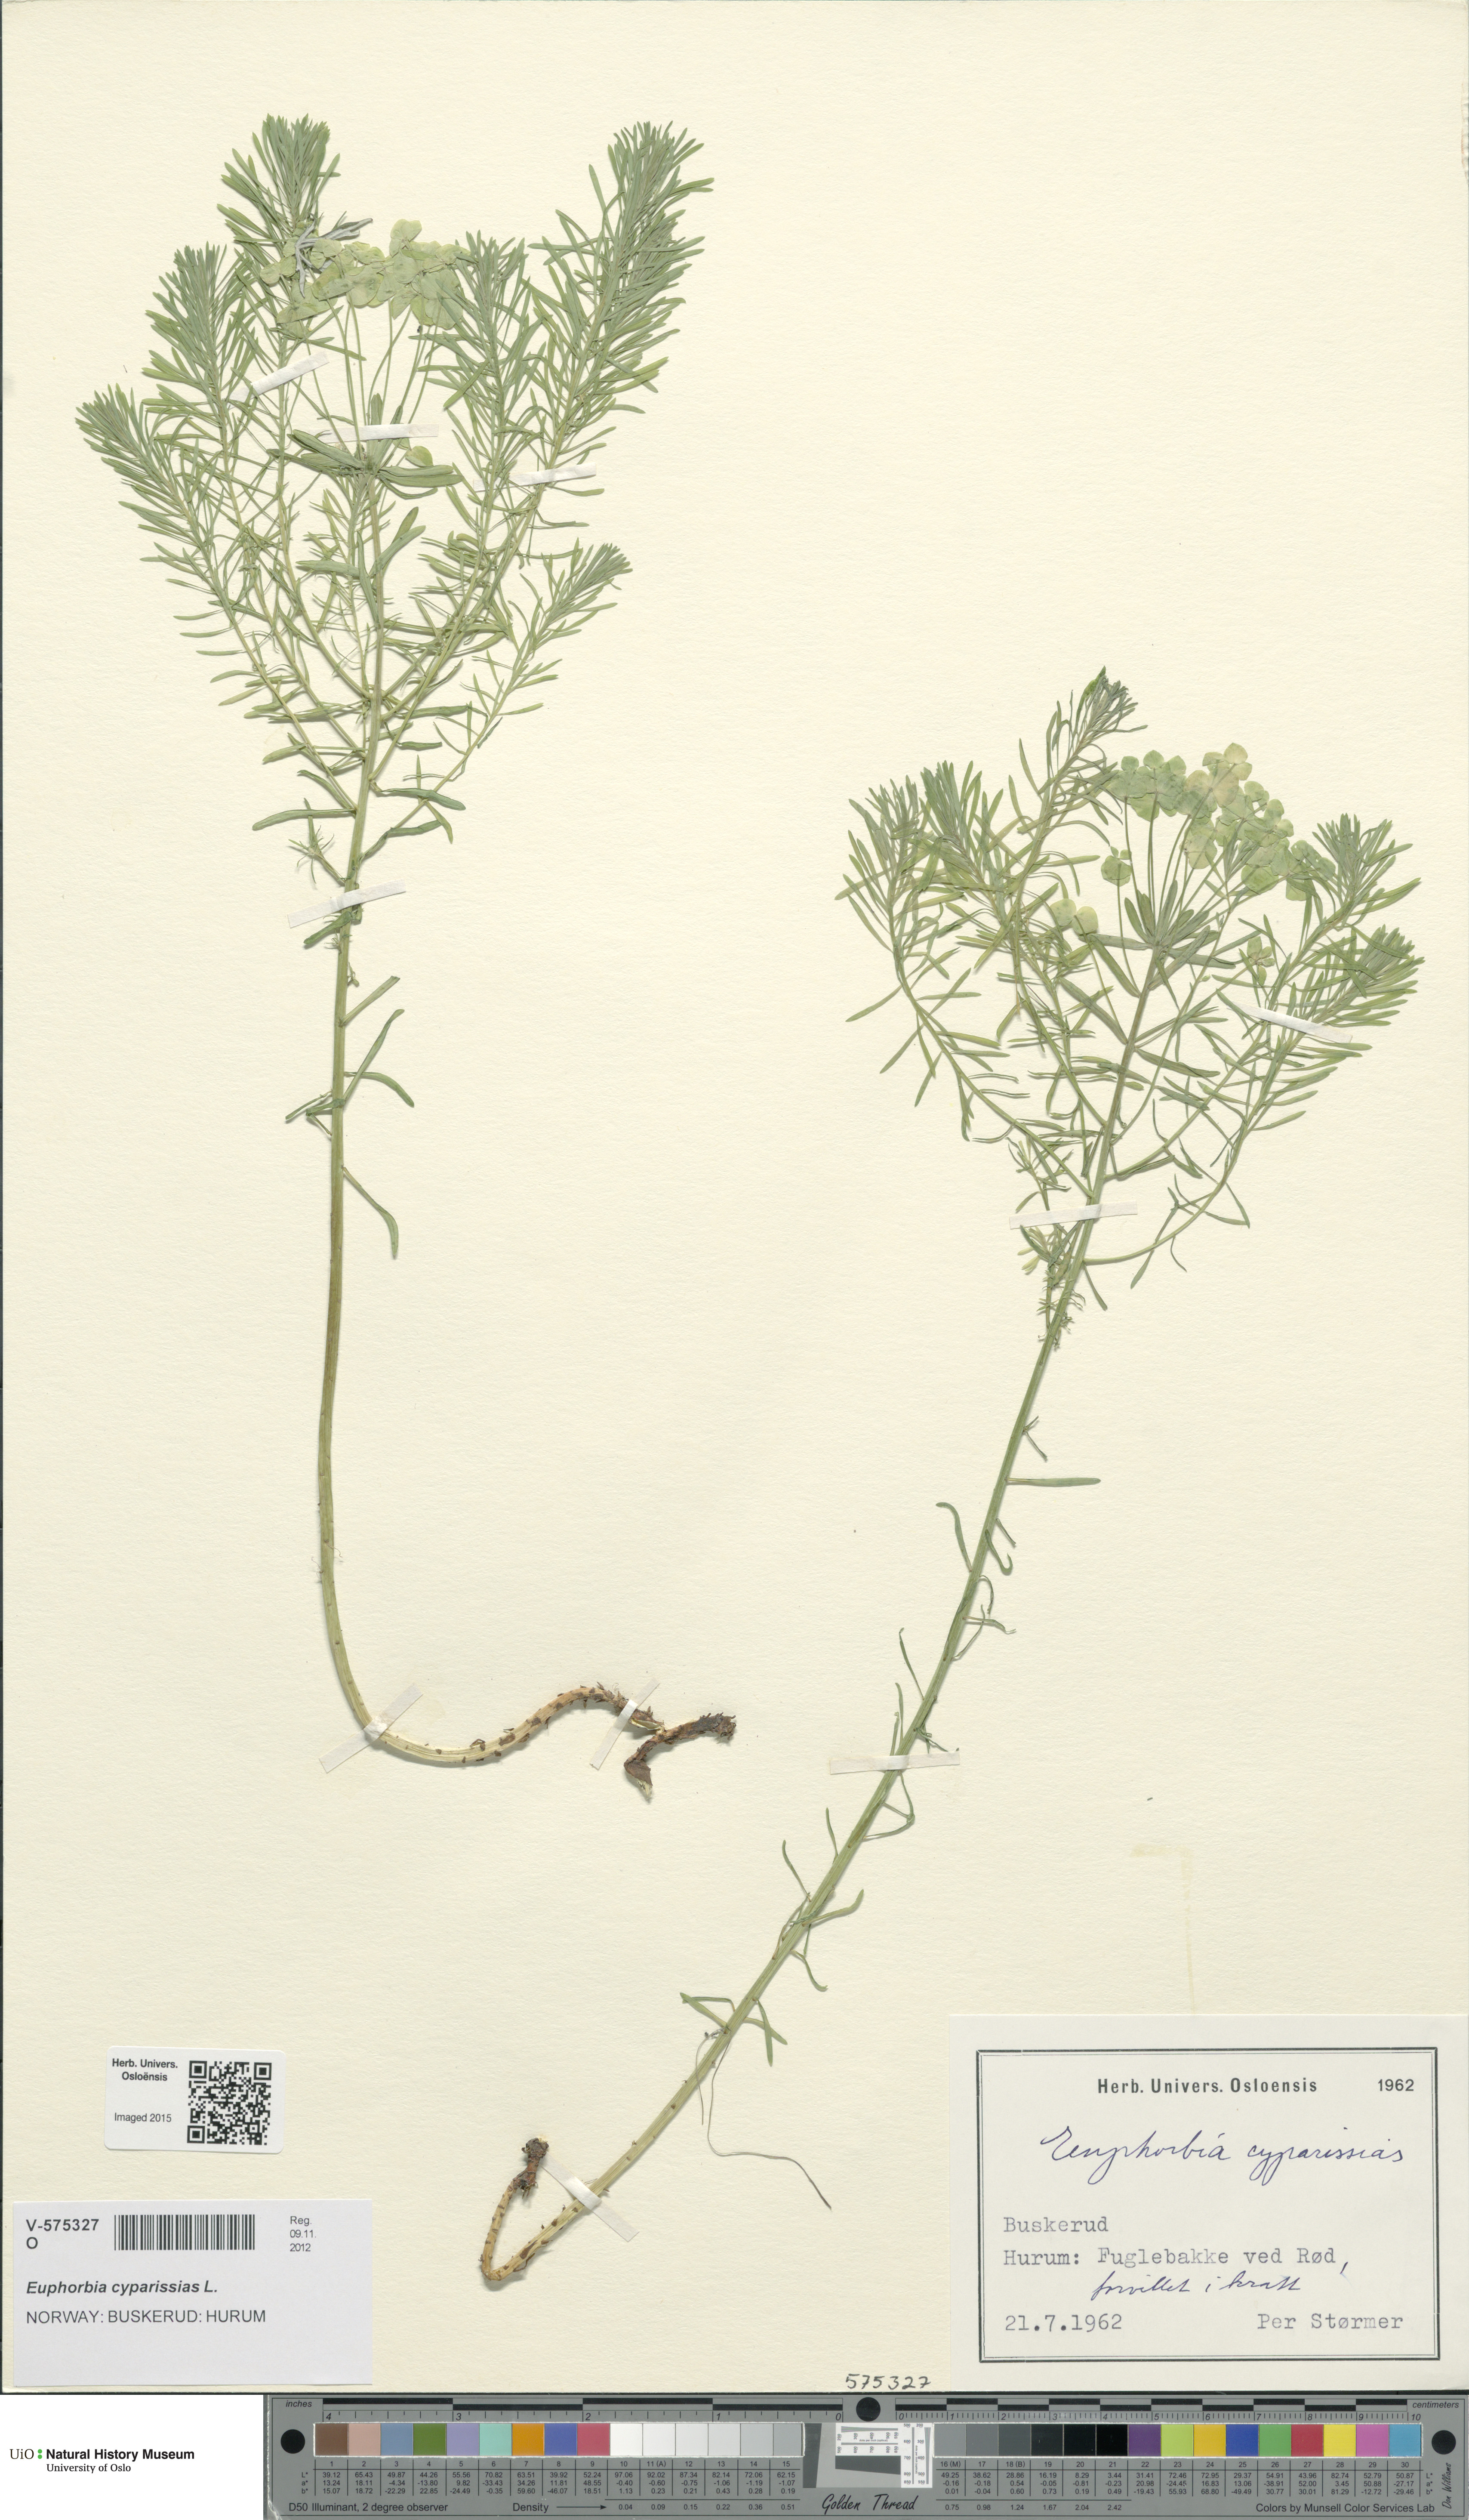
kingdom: Plantae
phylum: Tracheophyta
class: Magnoliopsida
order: Malpighiales
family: Euphorbiaceae
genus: Euphorbia
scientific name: Euphorbia cyparissias
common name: Cypress spurge
